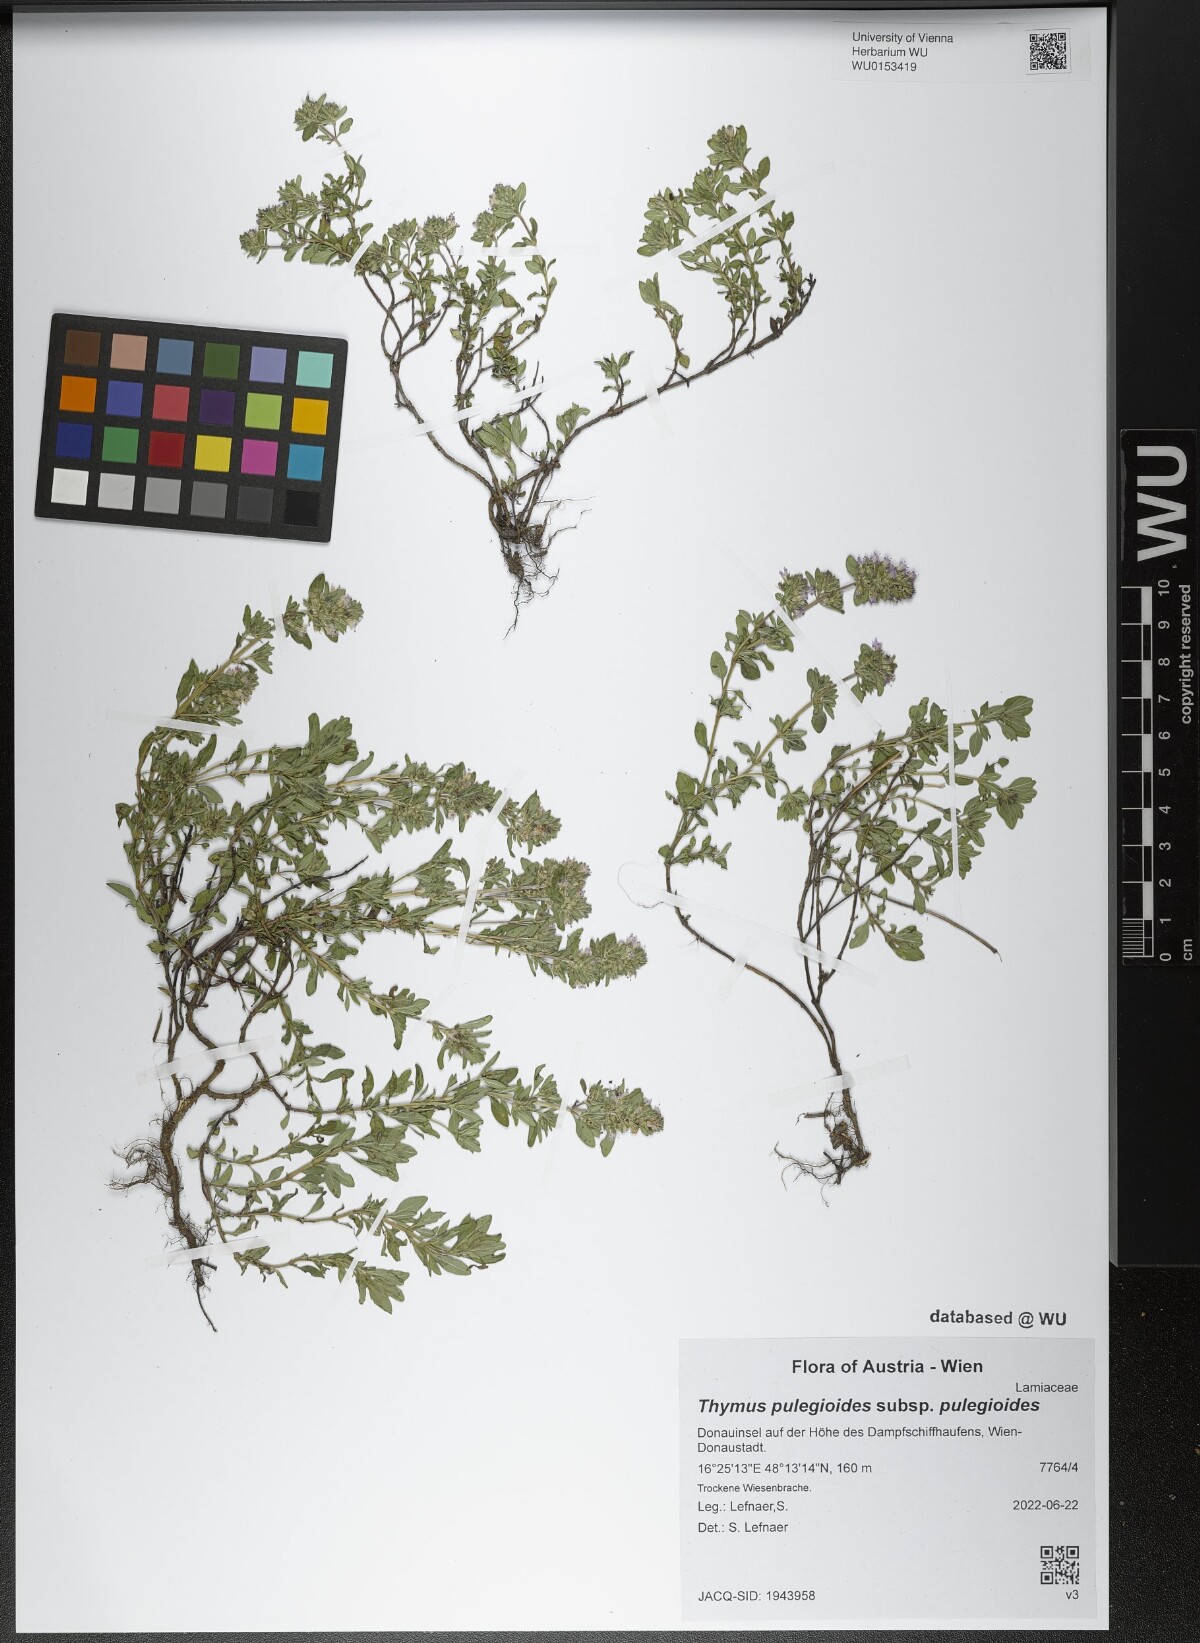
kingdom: Plantae
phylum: Tracheophyta
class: Magnoliopsida
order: Lamiales
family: Lamiaceae
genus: Thymus
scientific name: Thymus pulegioides
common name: Large thyme
